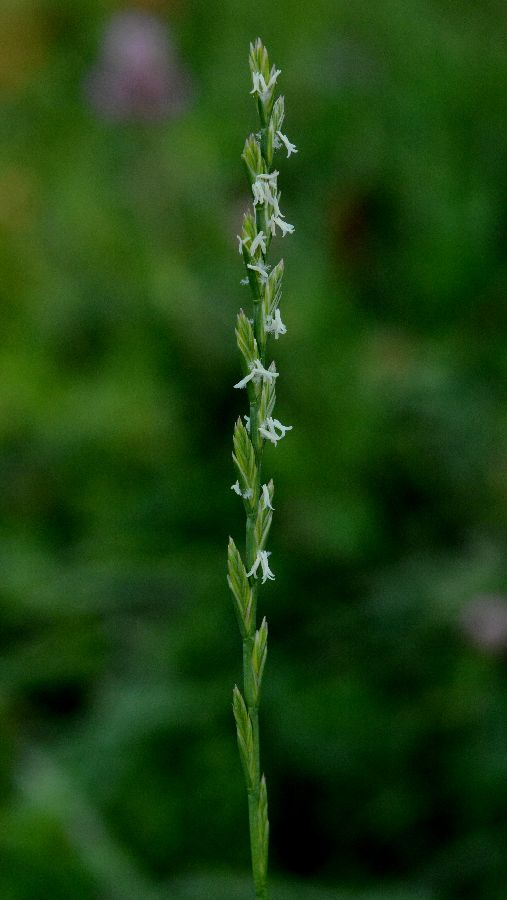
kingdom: Plantae
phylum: Tracheophyta
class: Liliopsida
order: Poales
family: Poaceae
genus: Lolium
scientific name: Lolium perenne
